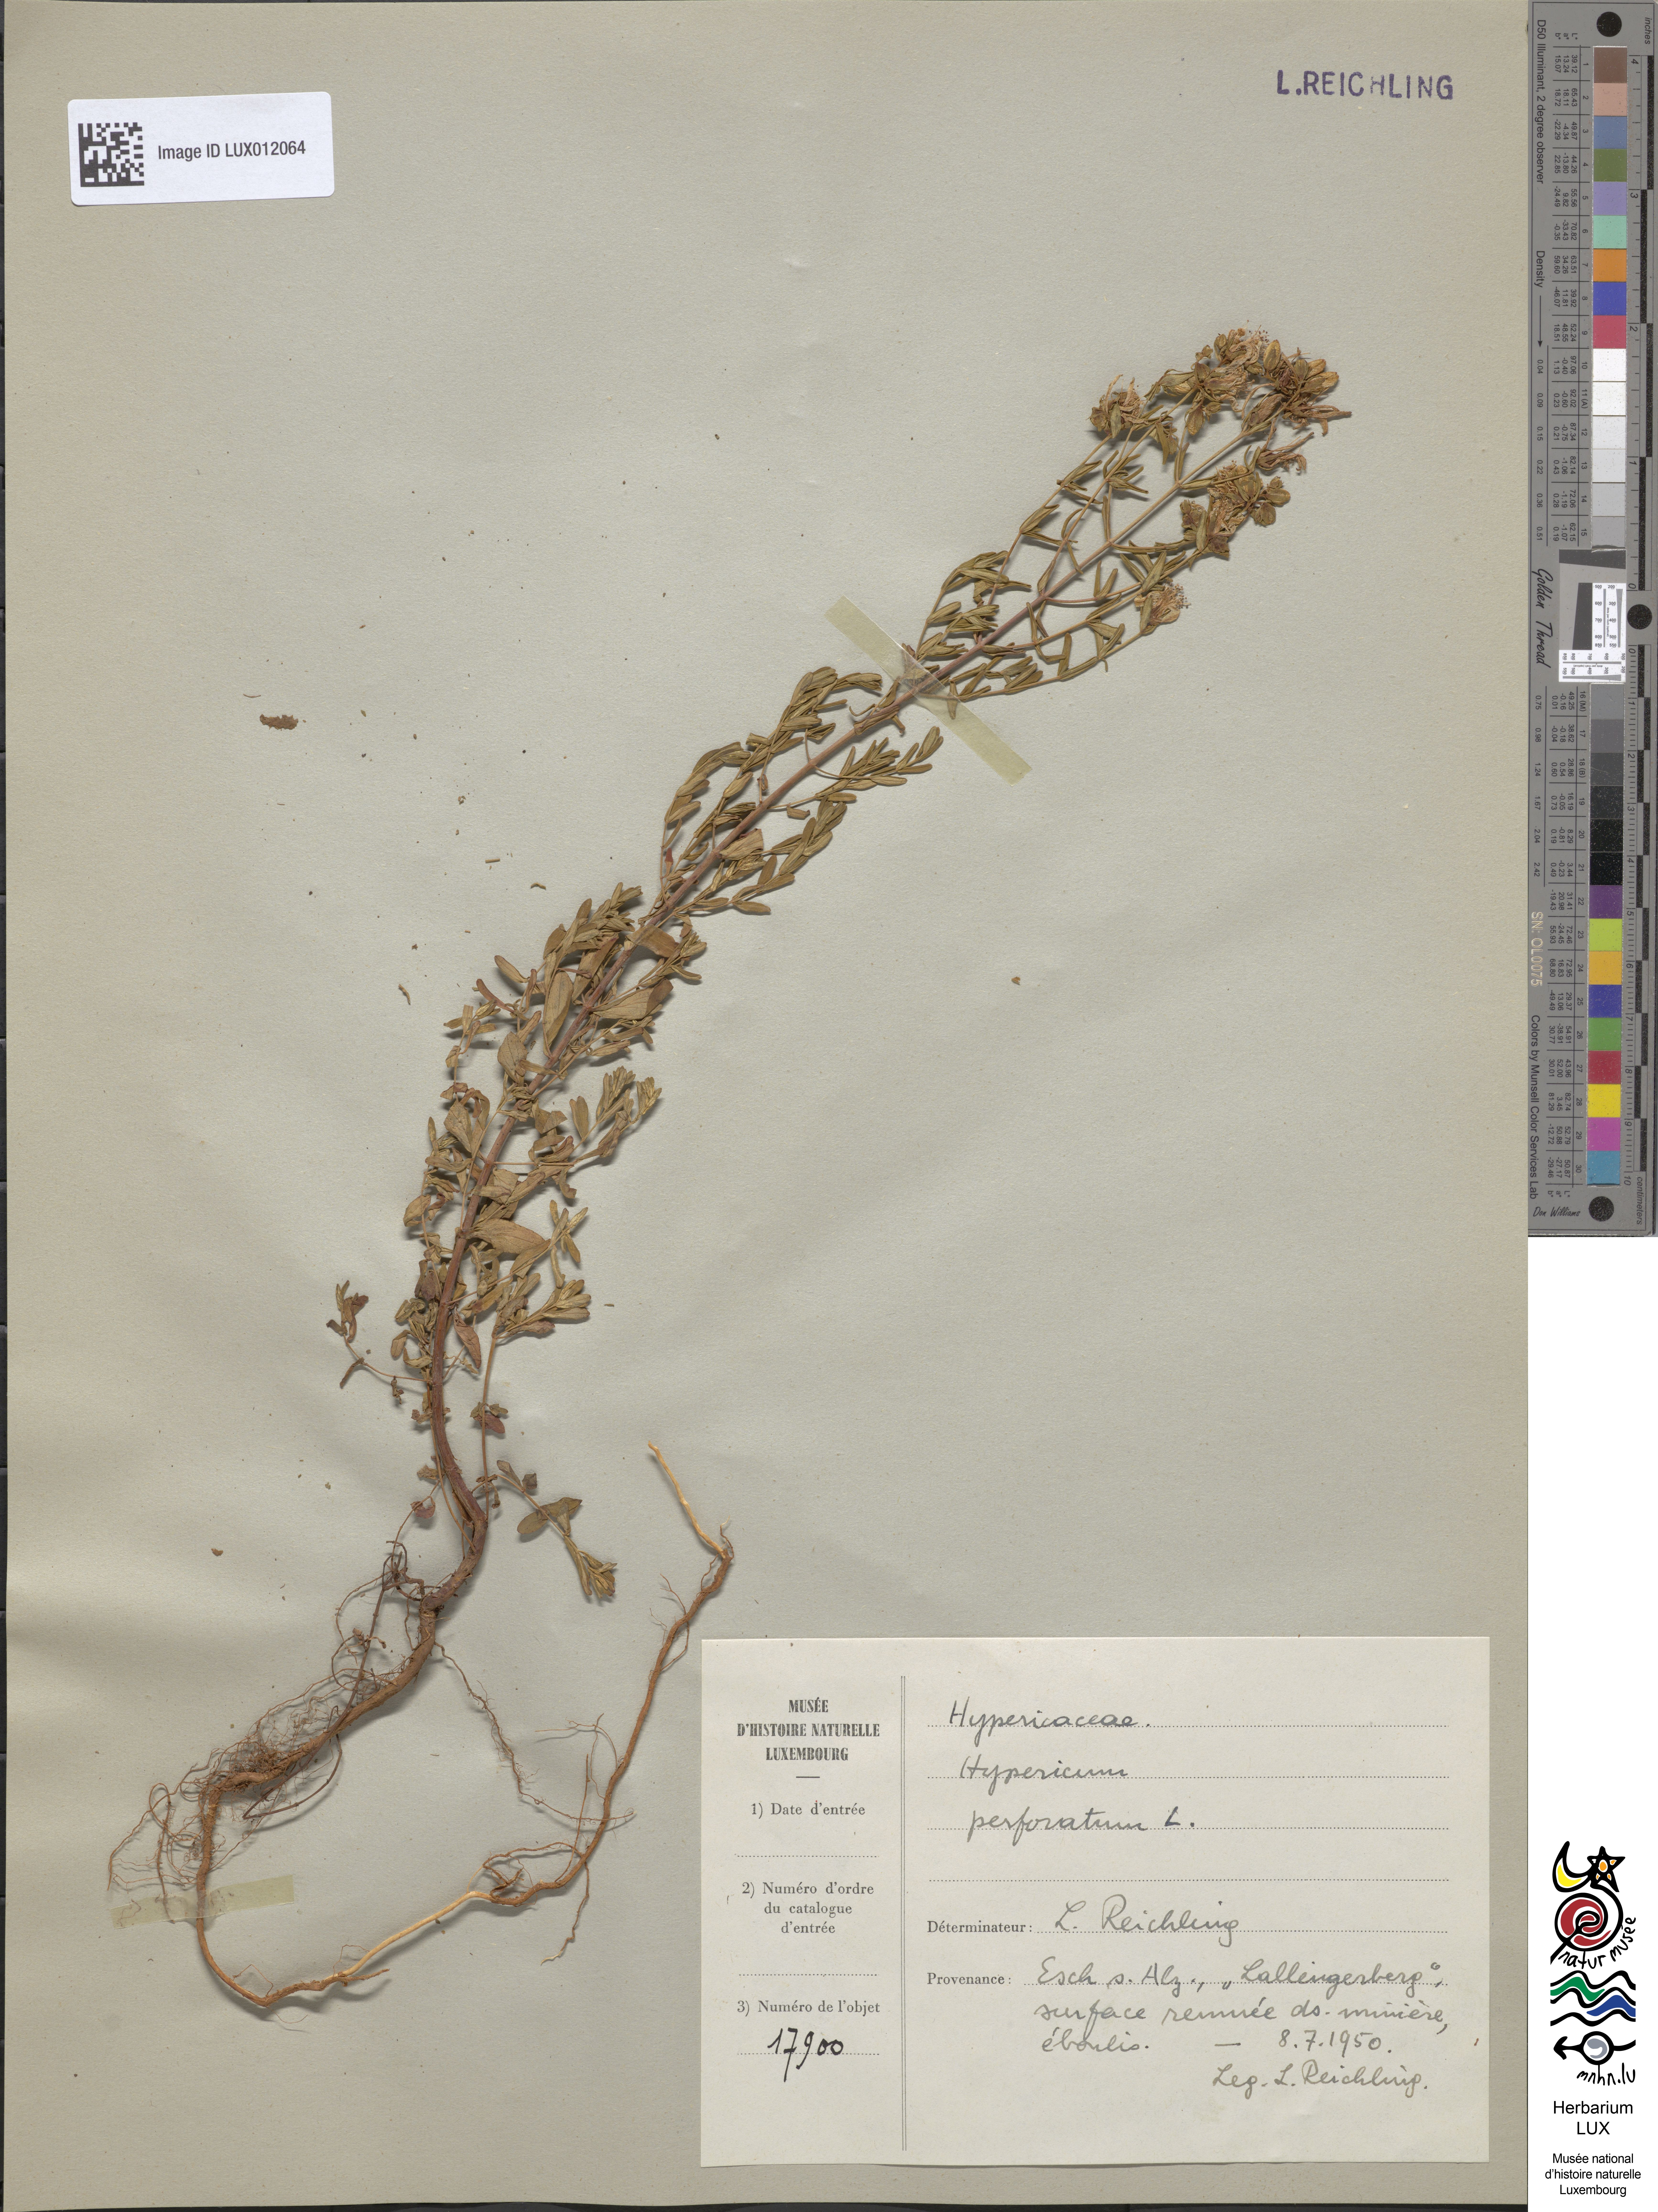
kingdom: Plantae
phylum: Tracheophyta
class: Magnoliopsida
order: Malpighiales
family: Hypericaceae
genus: Hypericum
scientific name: Hypericum perforatum
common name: Common st. johnswort
